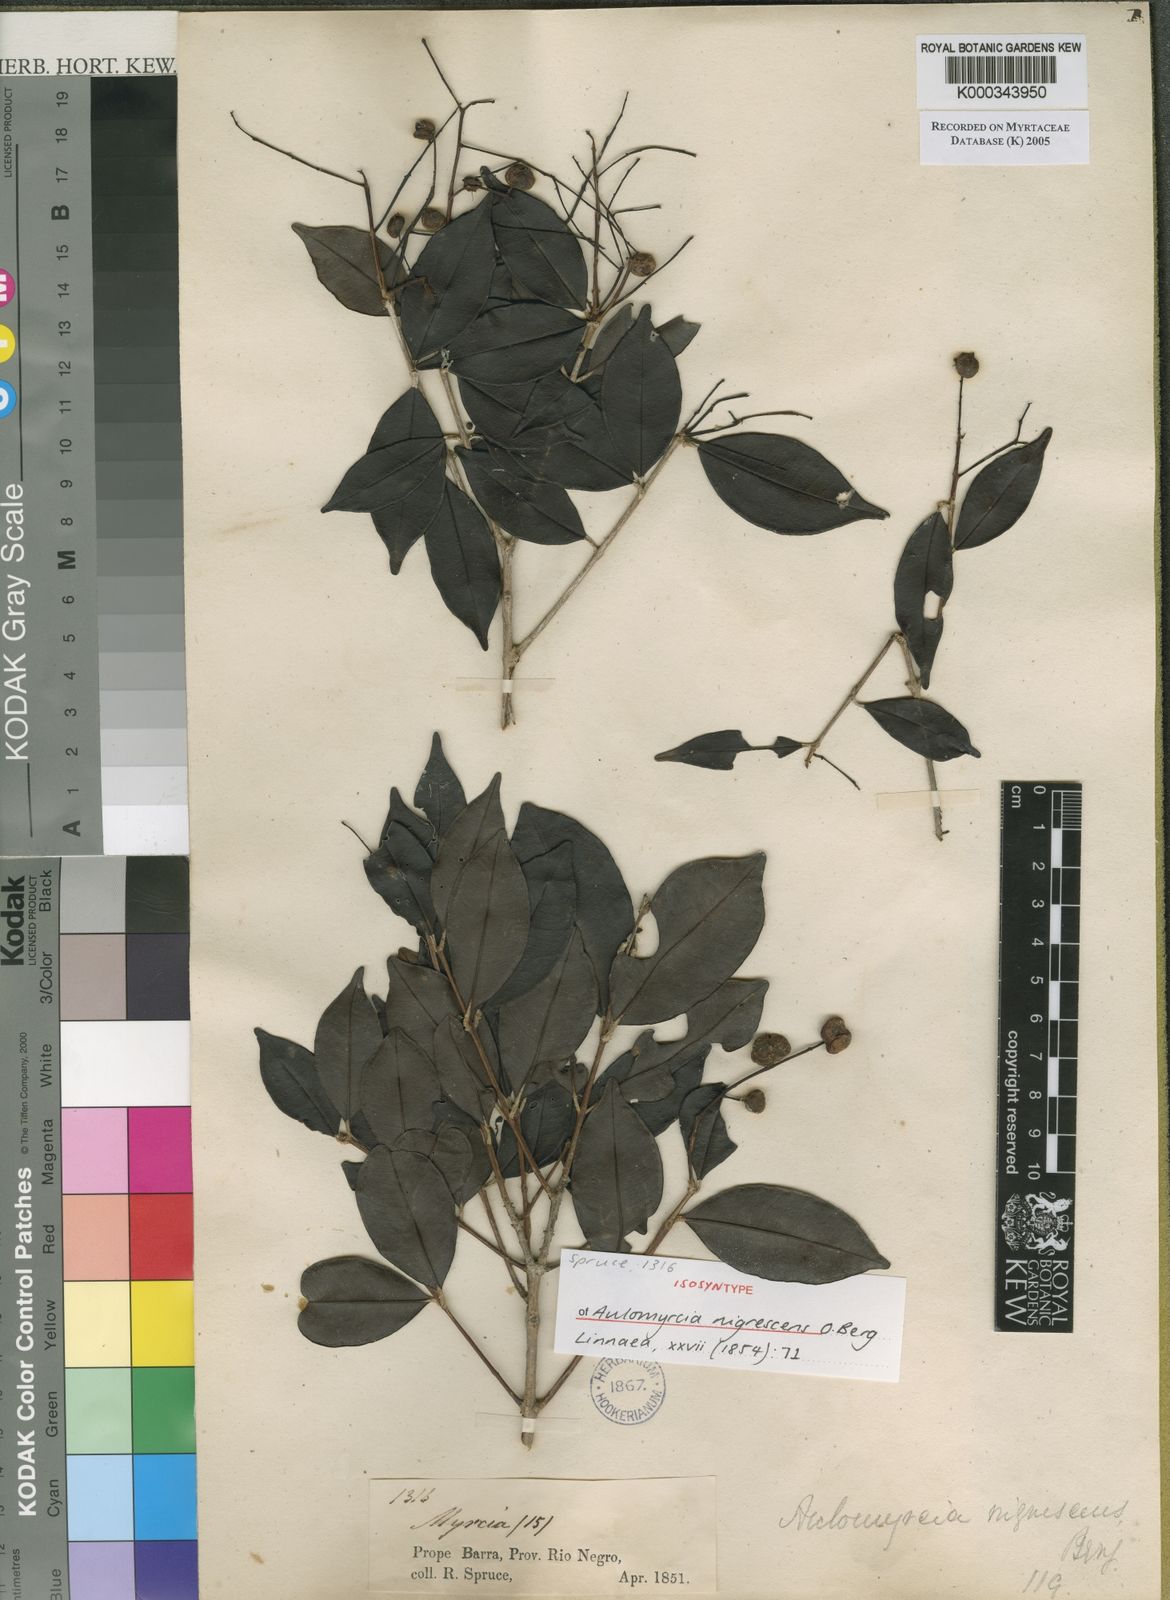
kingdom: Plantae
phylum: Tracheophyta
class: Magnoliopsida
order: Myrtales
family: Myrtaceae
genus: Myrcia
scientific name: Myrcia umbraticola
